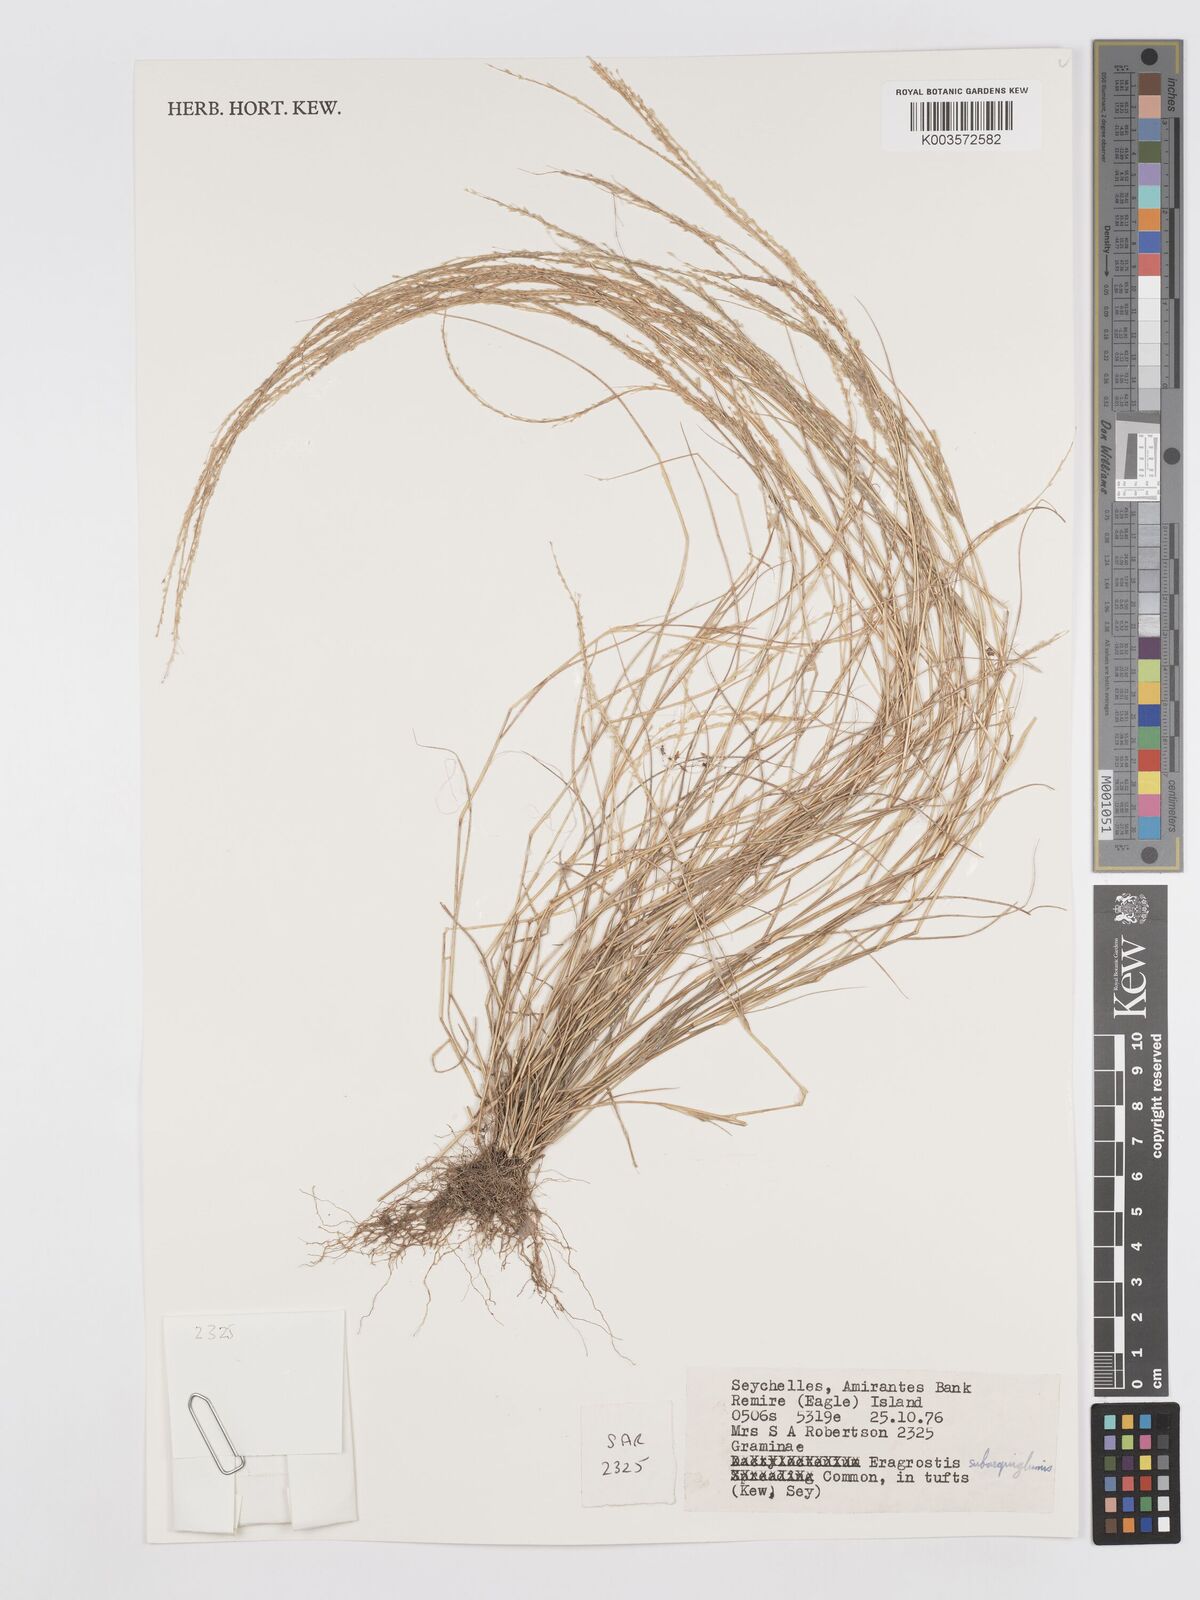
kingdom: Plantae
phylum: Tracheophyta
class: Liliopsida
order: Poales
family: Poaceae
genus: Eragrostis
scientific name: Eragrostis subaequiglumis
